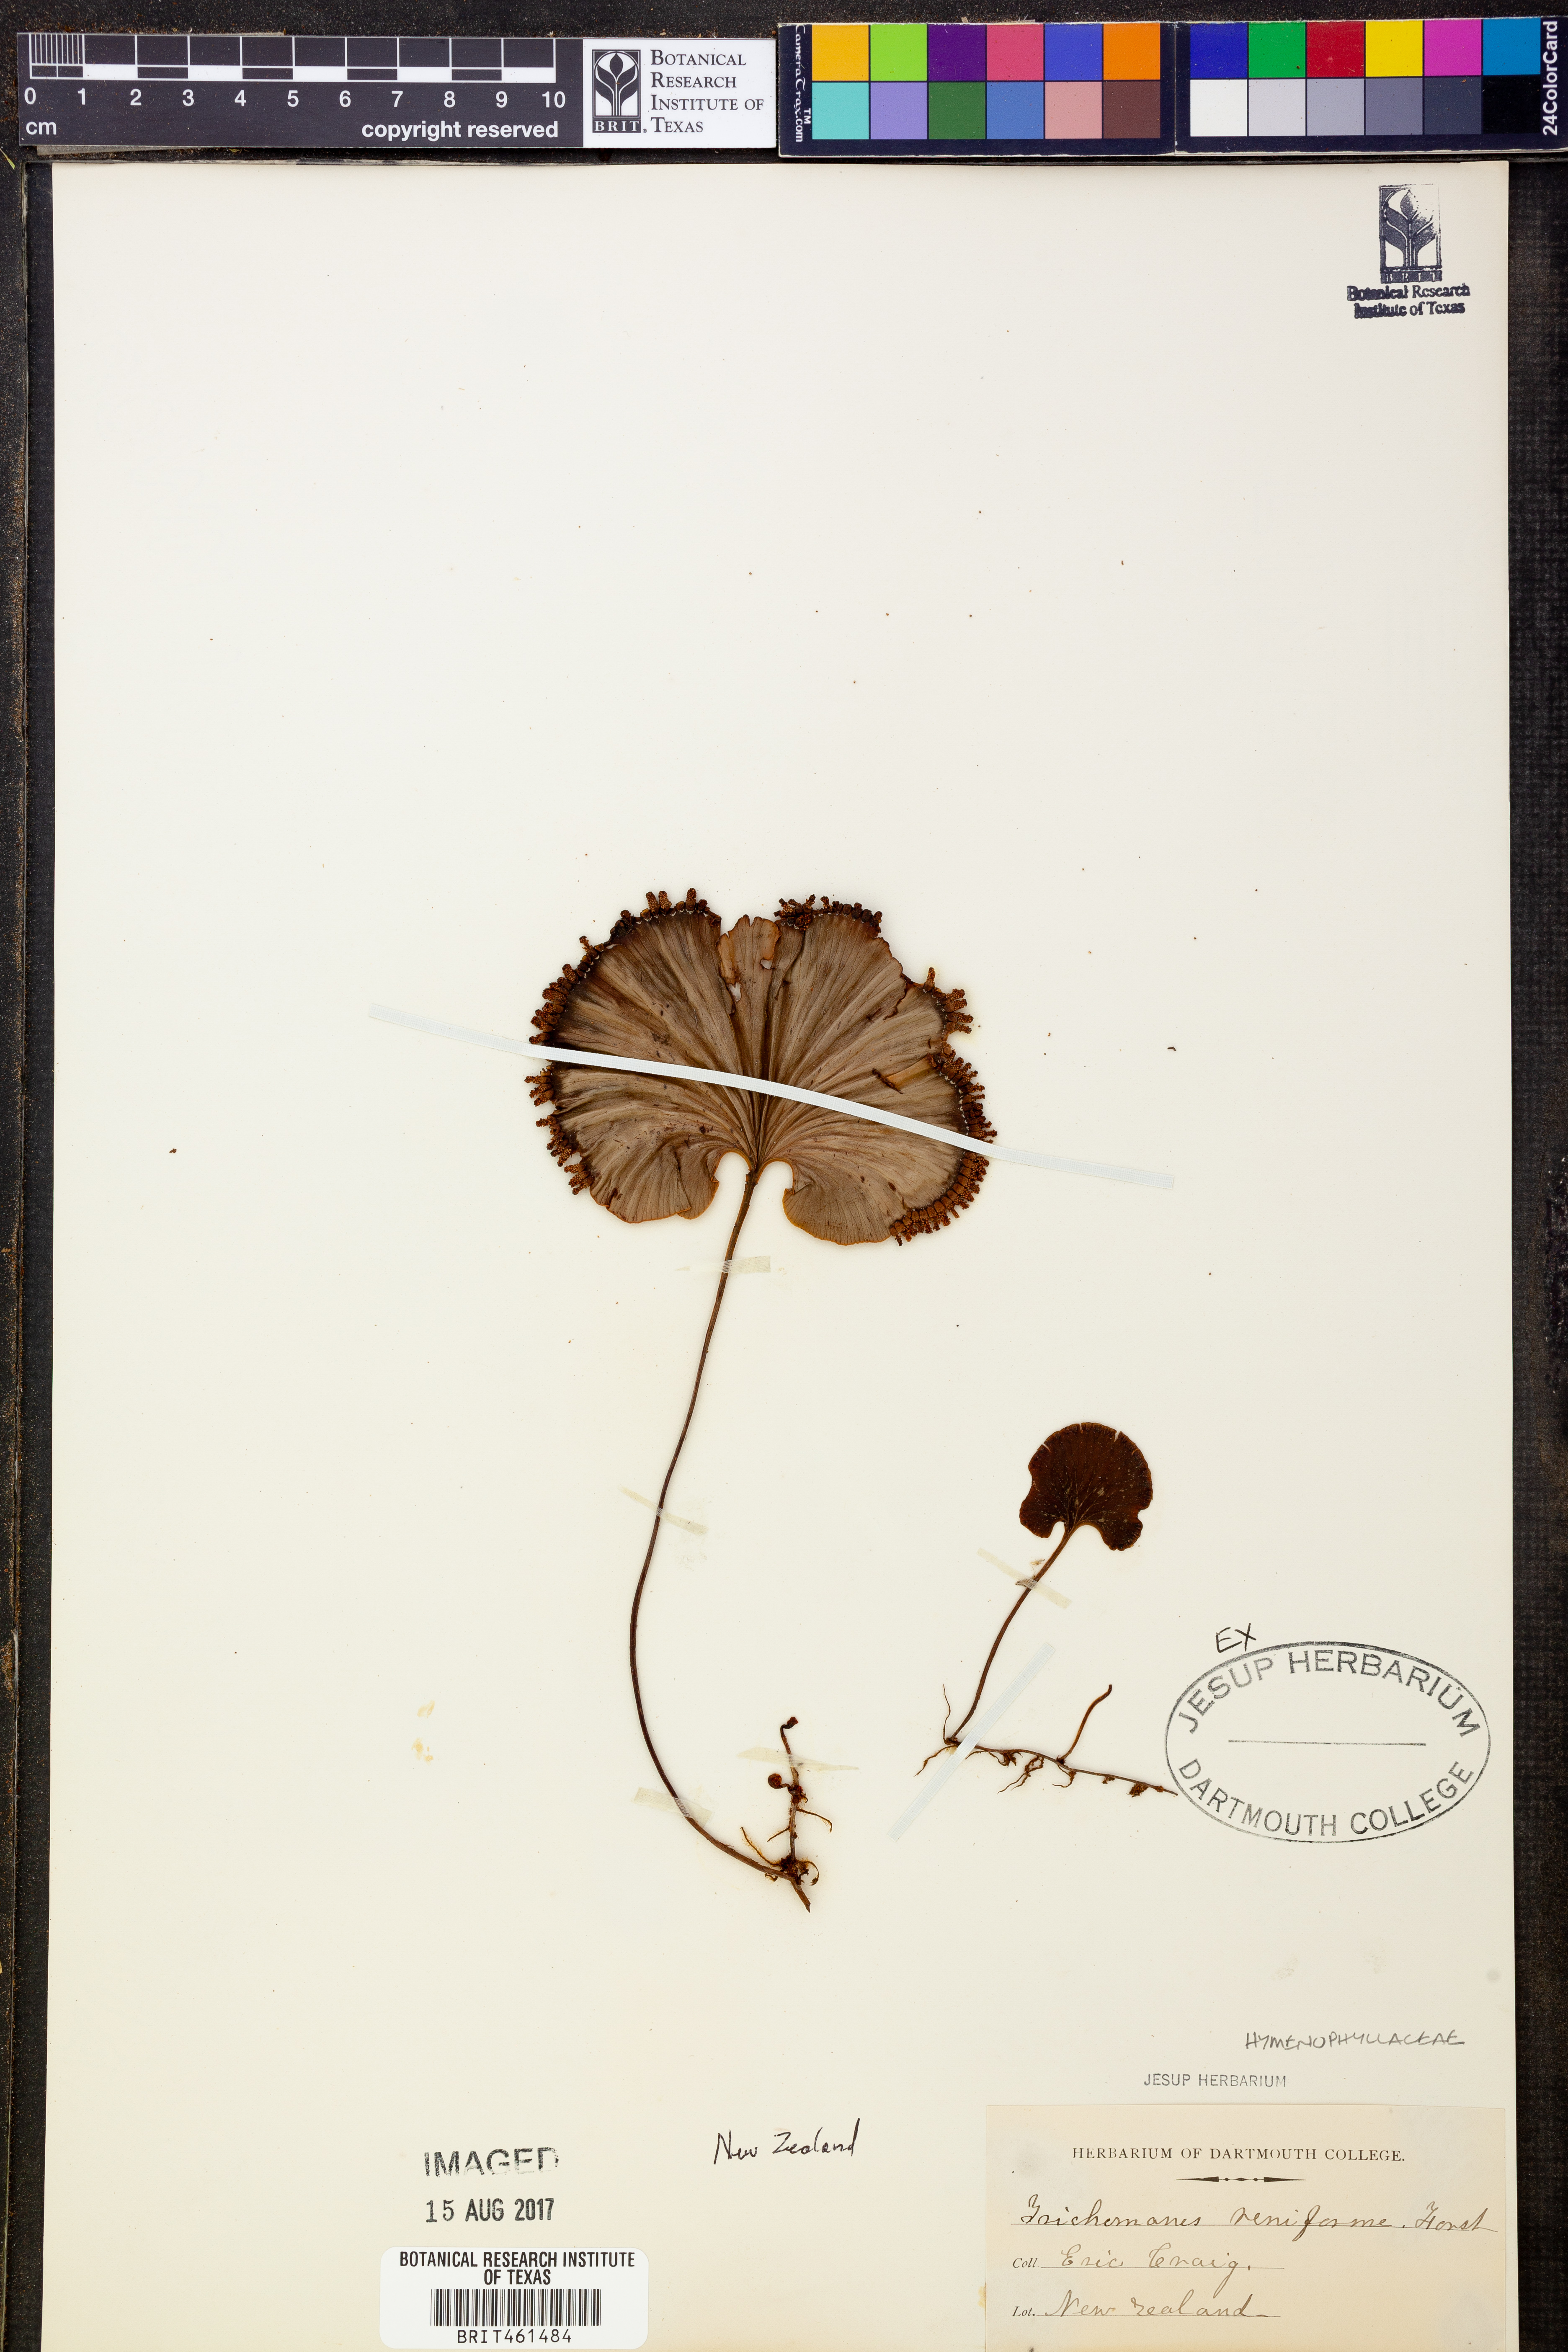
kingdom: Plantae
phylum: Tracheophyta
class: Polypodiopsida
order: Hymenophyllales
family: Hymenophyllaceae
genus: Hymenophyllum
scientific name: Hymenophyllum nephrophyllum
